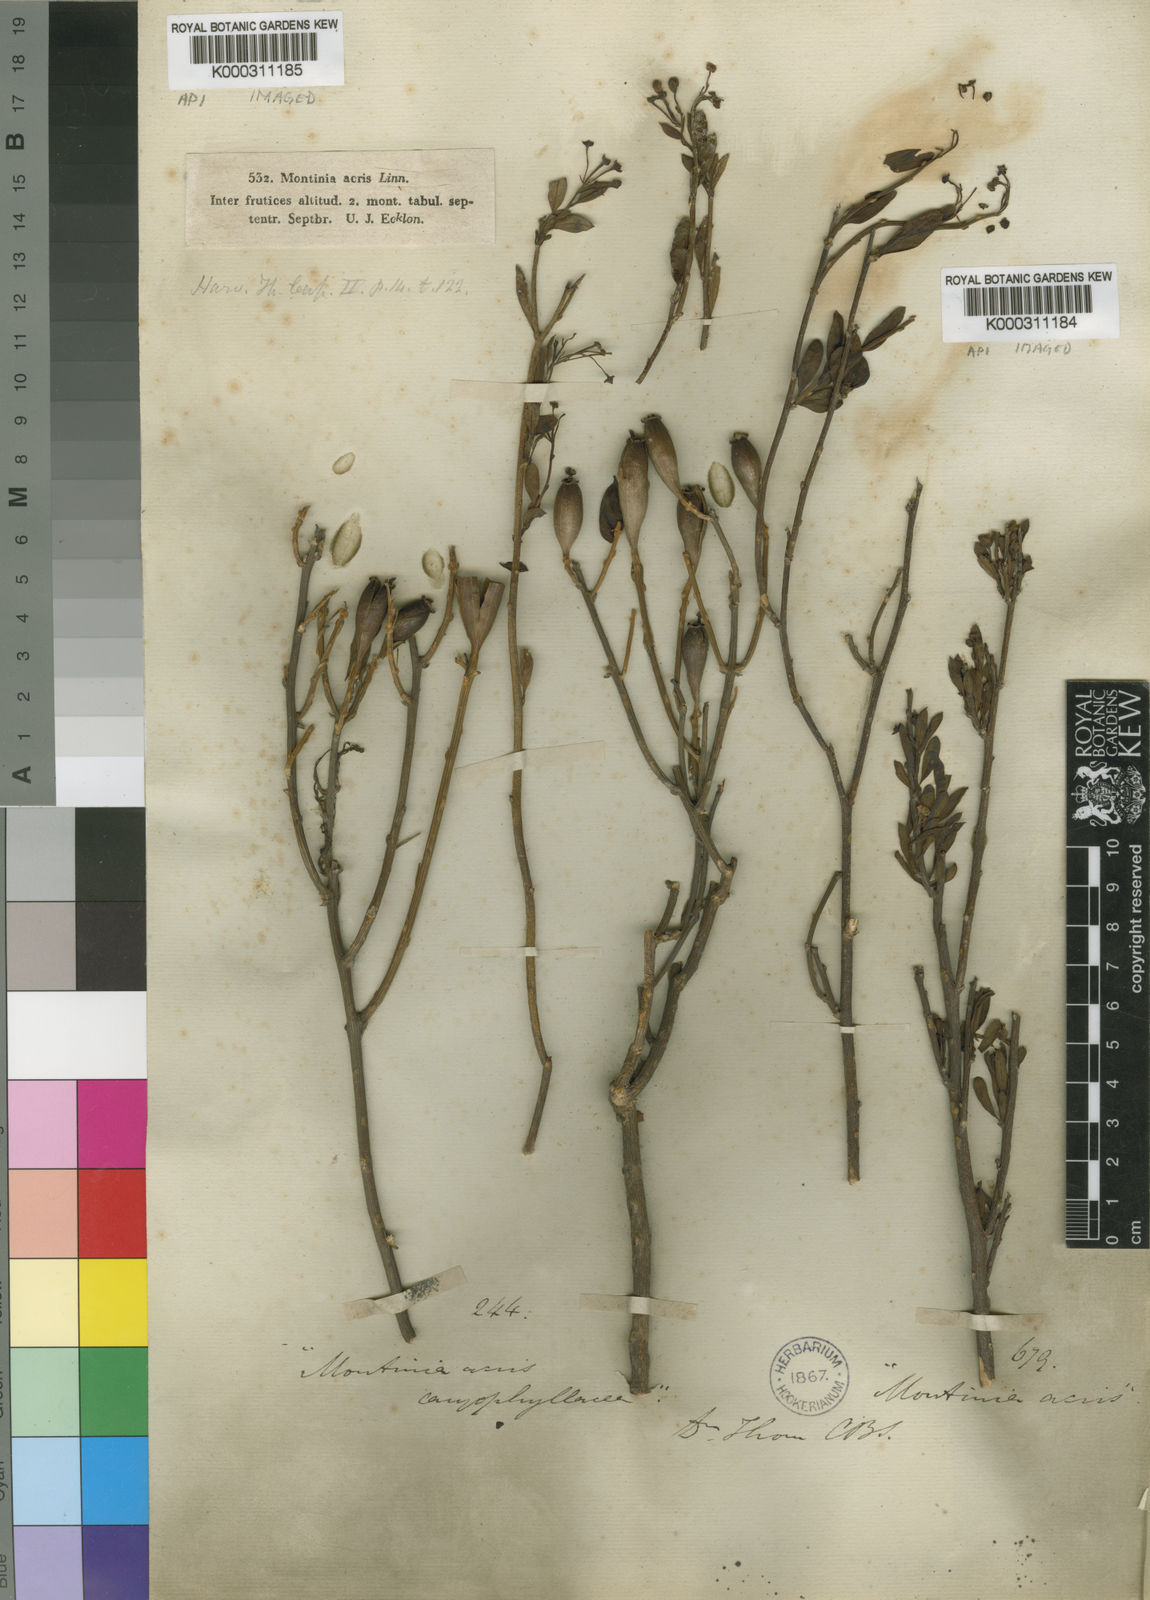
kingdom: Plantae
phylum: Tracheophyta
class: Magnoliopsida
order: Solanales
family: Montiniaceae
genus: Montinia
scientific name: Montinia caryophyllacea
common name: Wild clove-bush
